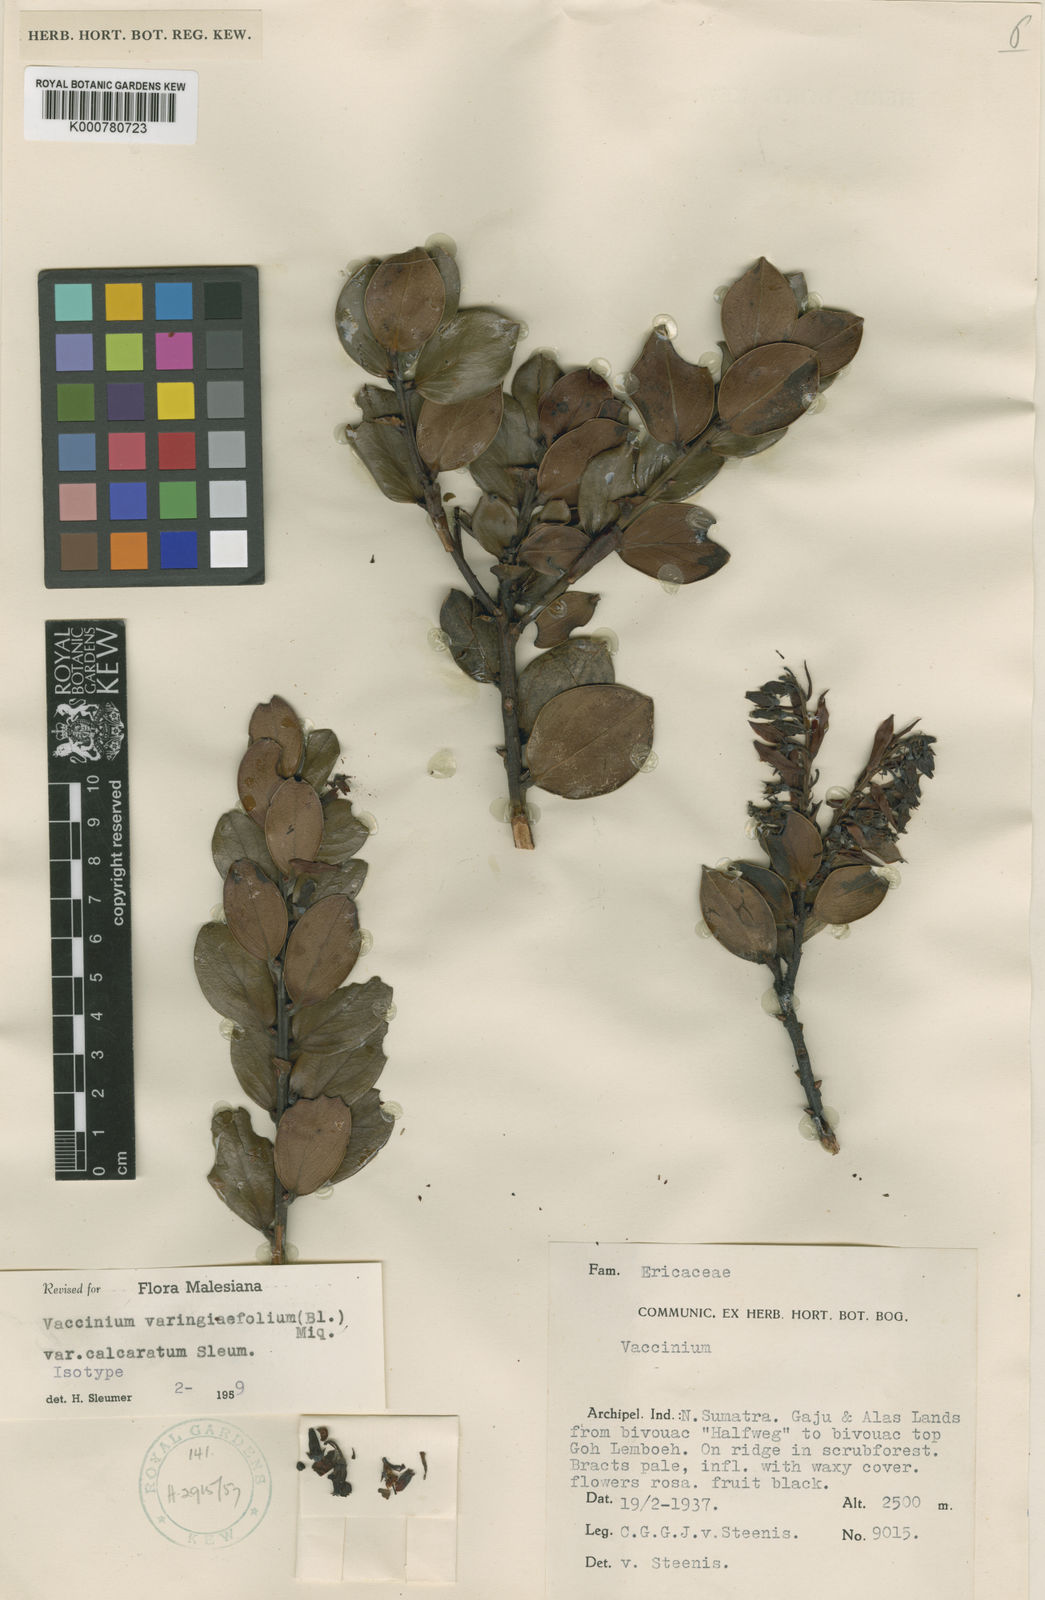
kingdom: Plantae
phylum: Tracheophyta
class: Magnoliopsida
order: Ericales
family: Ericaceae
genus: Vaccinium
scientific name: Vaccinium
